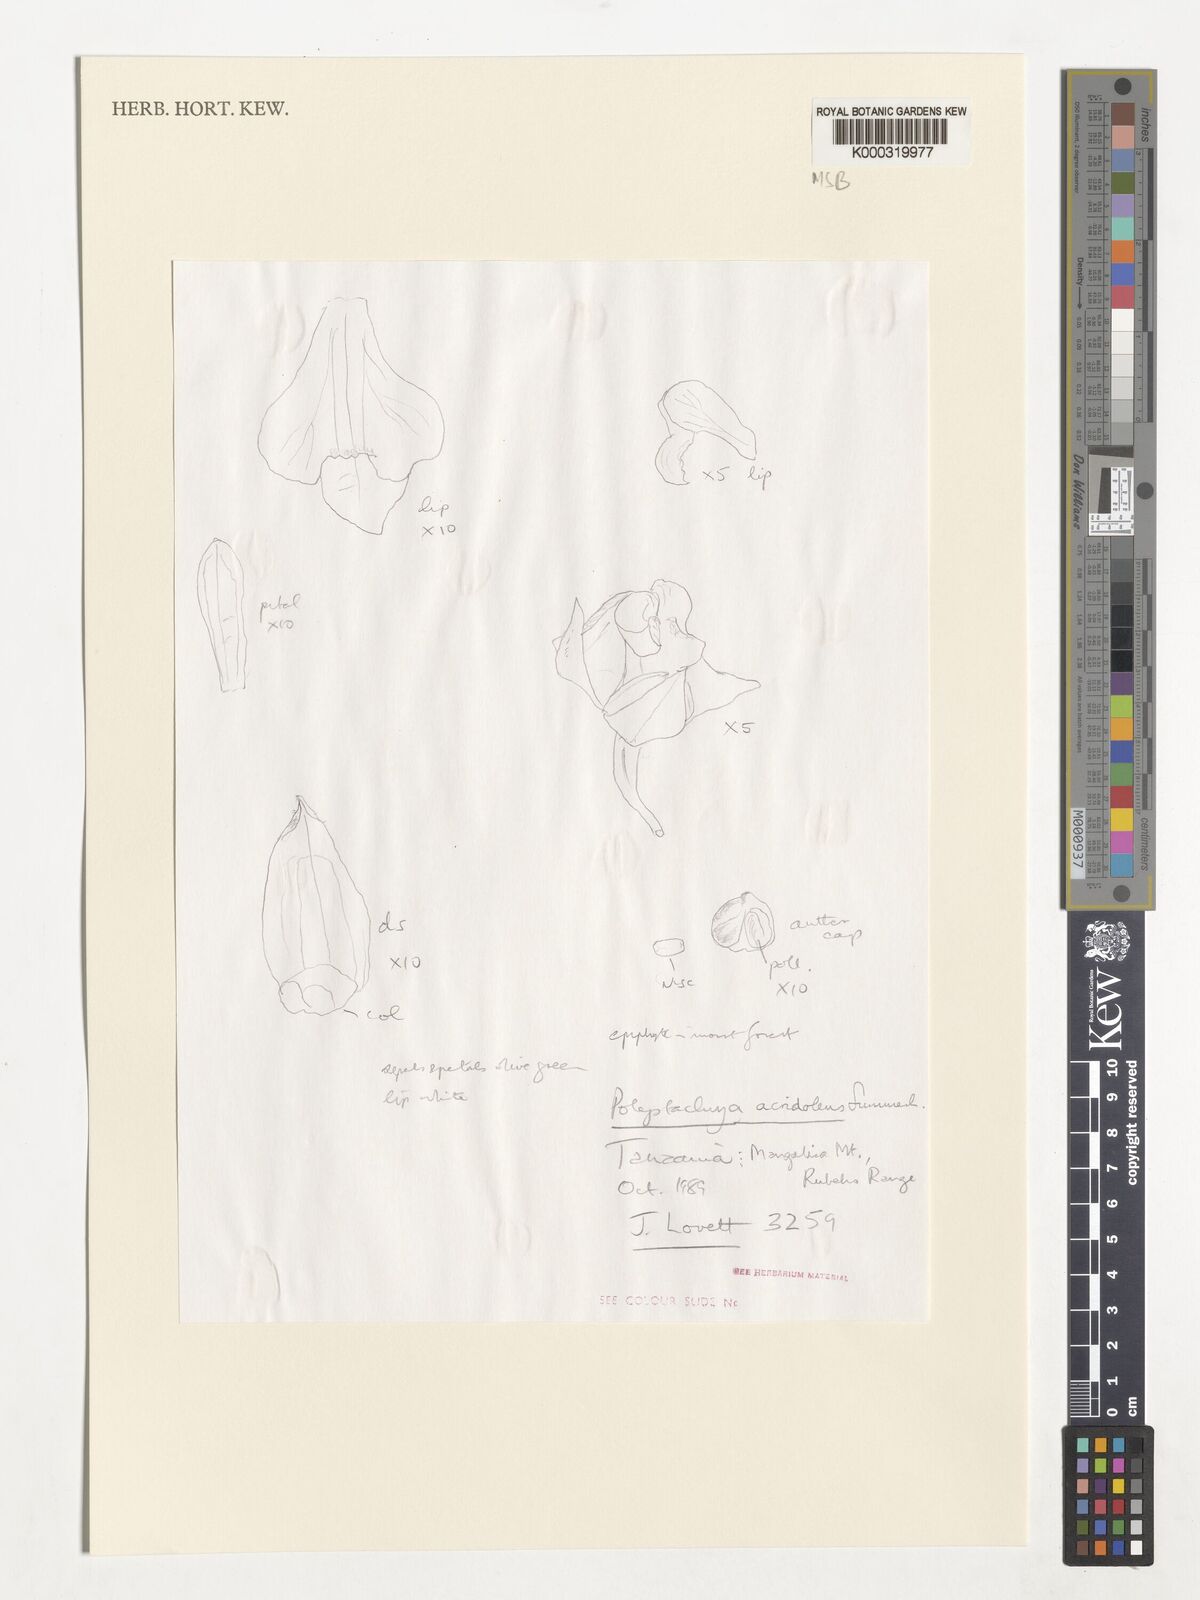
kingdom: Plantae
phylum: Tracheophyta
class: Liliopsida
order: Asparagales
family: Orchidaceae
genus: Polystachya
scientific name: Polystachya acridolens
